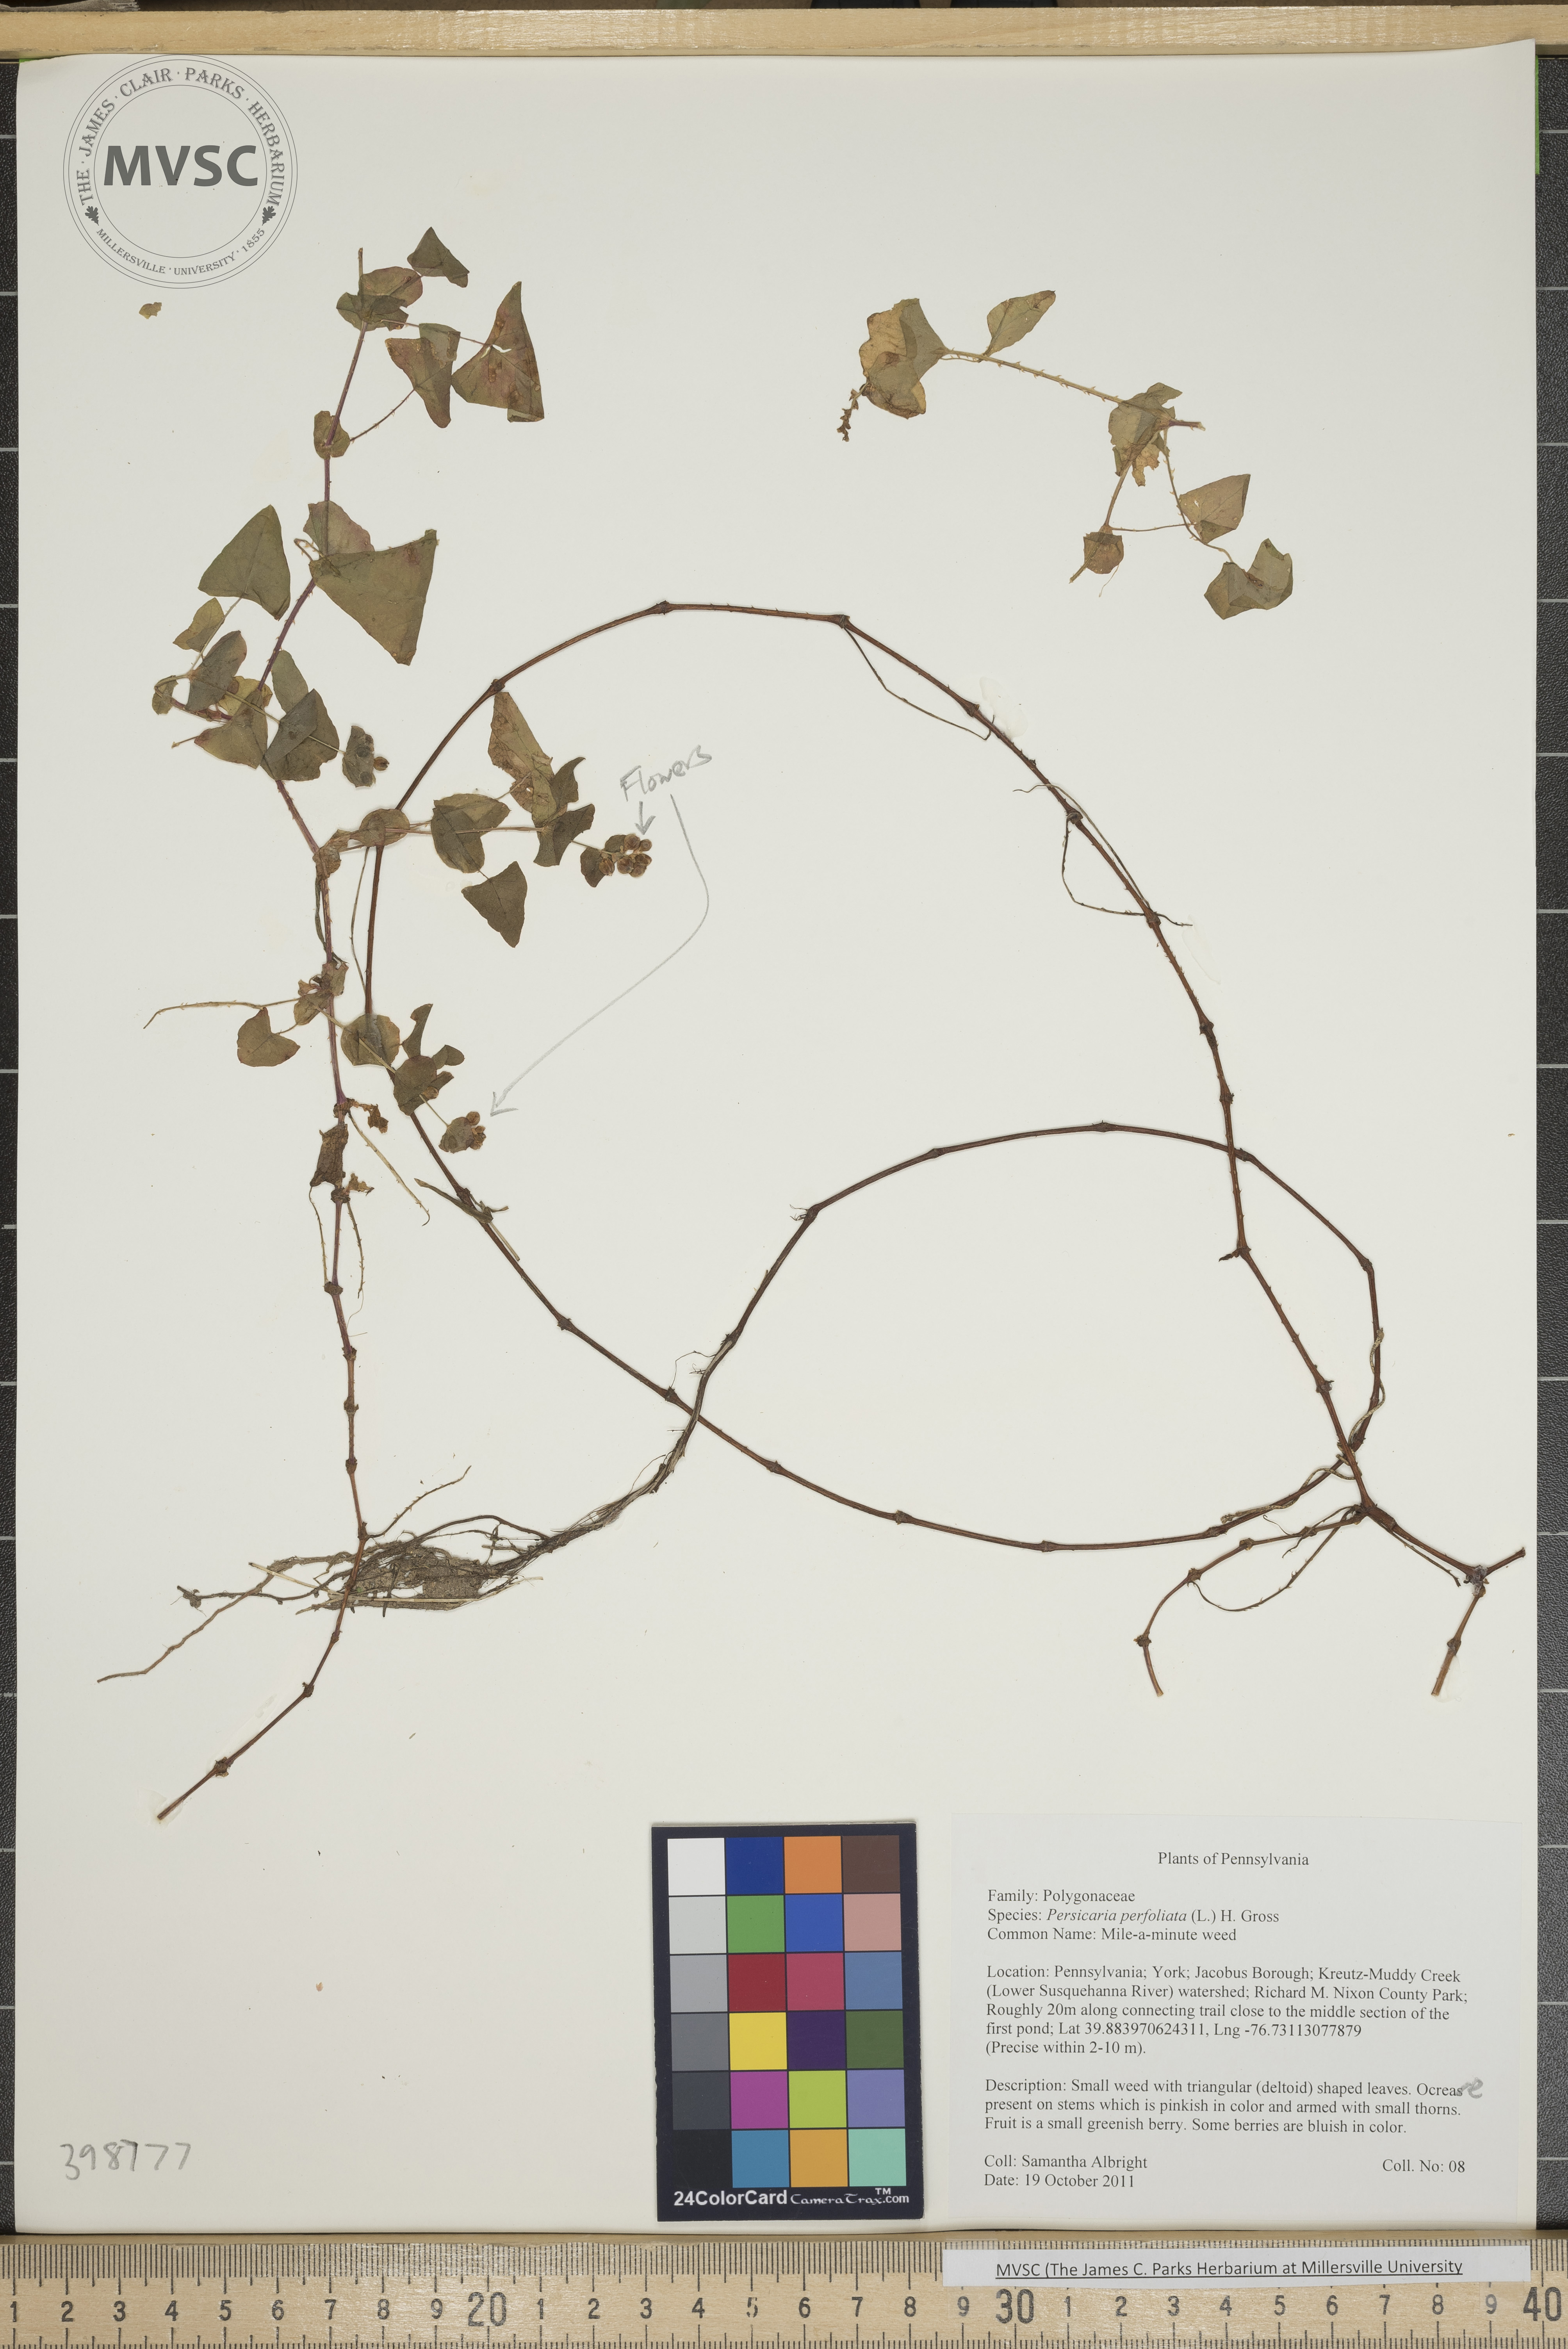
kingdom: Plantae
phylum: Tracheophyta
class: Magnoliopsida
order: Caryophyllales
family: Polygonaceae
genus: Persicaria
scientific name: Persicaria perfoliata
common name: Mile-a-minute weed
